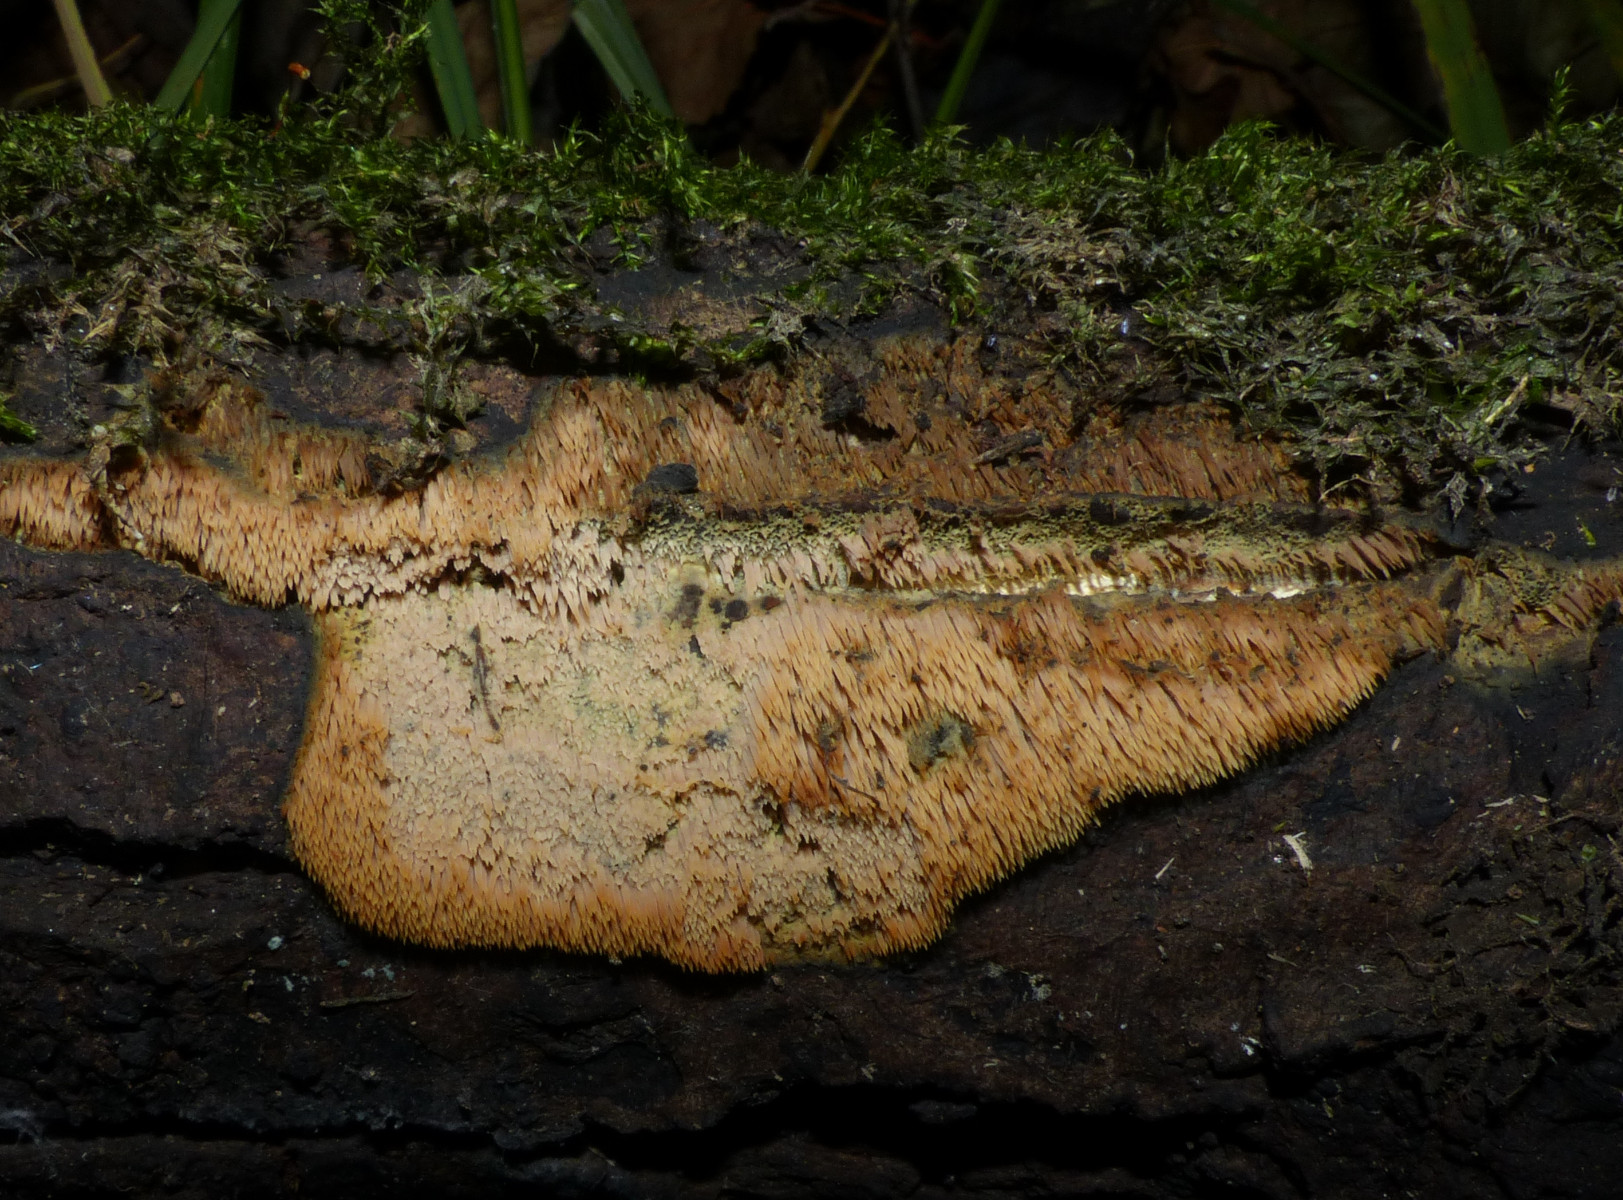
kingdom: Fungi
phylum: Basidiomycota
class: Agaricomycetes
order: Polyporales
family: Meruliaceae
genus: Mycoaciella
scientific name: Mycoaciella bispora
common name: stalaktit-vokspig
